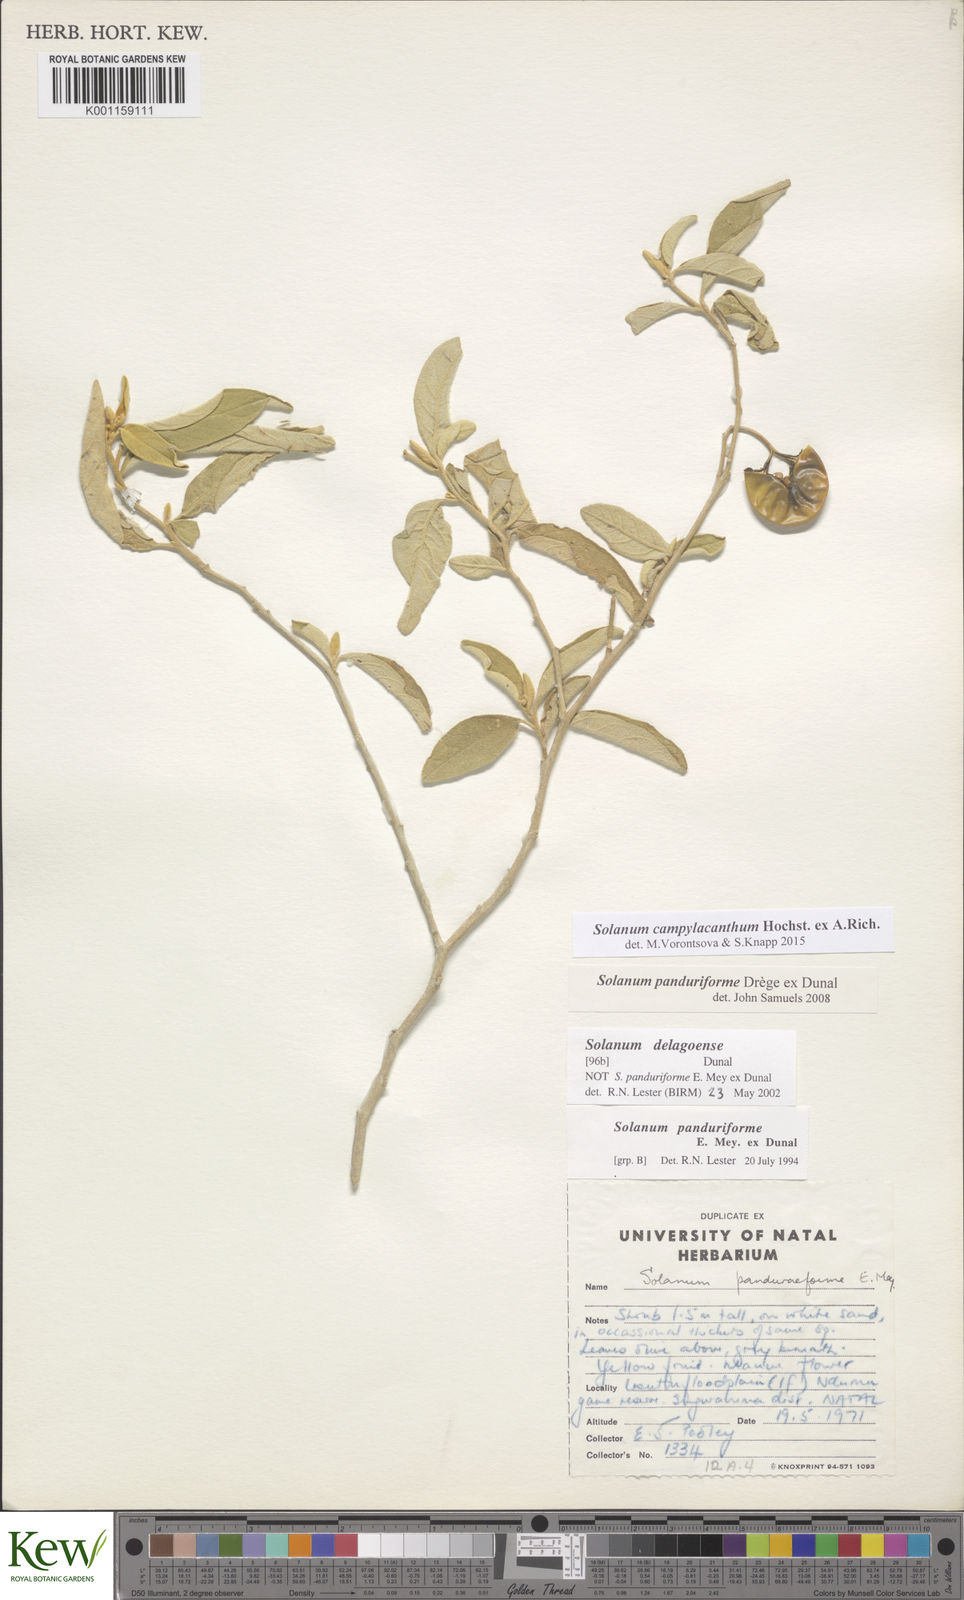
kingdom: Plantae
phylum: Tracheophyta
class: Magnoliopsida
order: Solanales
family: Solanaceae
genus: Solanum
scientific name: Solanum campylacanthum
